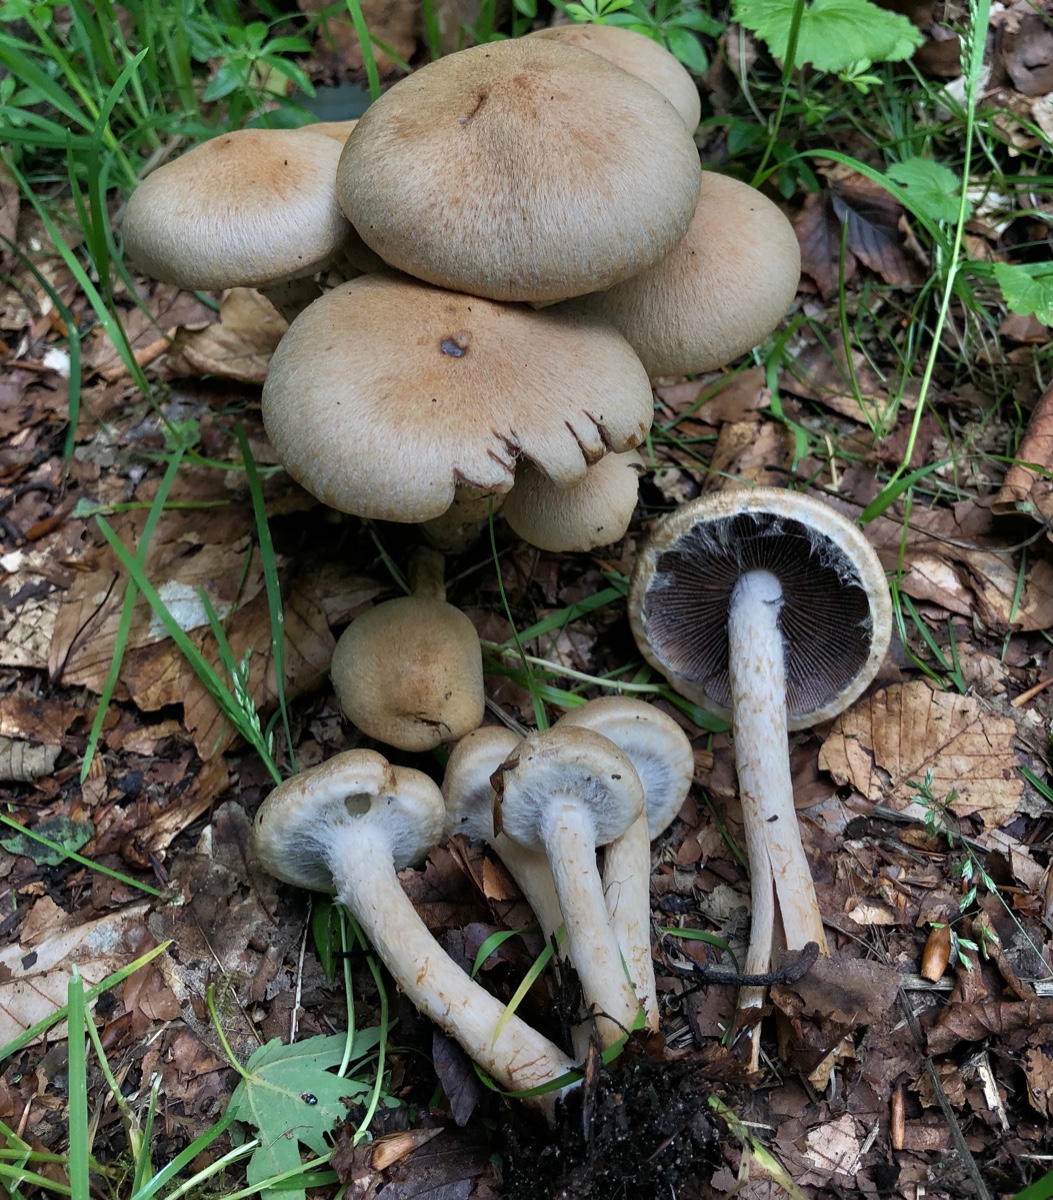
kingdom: Fungi
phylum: Basidiomycota
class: Agaricomycetes
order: Agaricales
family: Psathyrellaceae
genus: Lacrymaria
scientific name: Lacrymaria lacrymabunda
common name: grædende mørkhat
